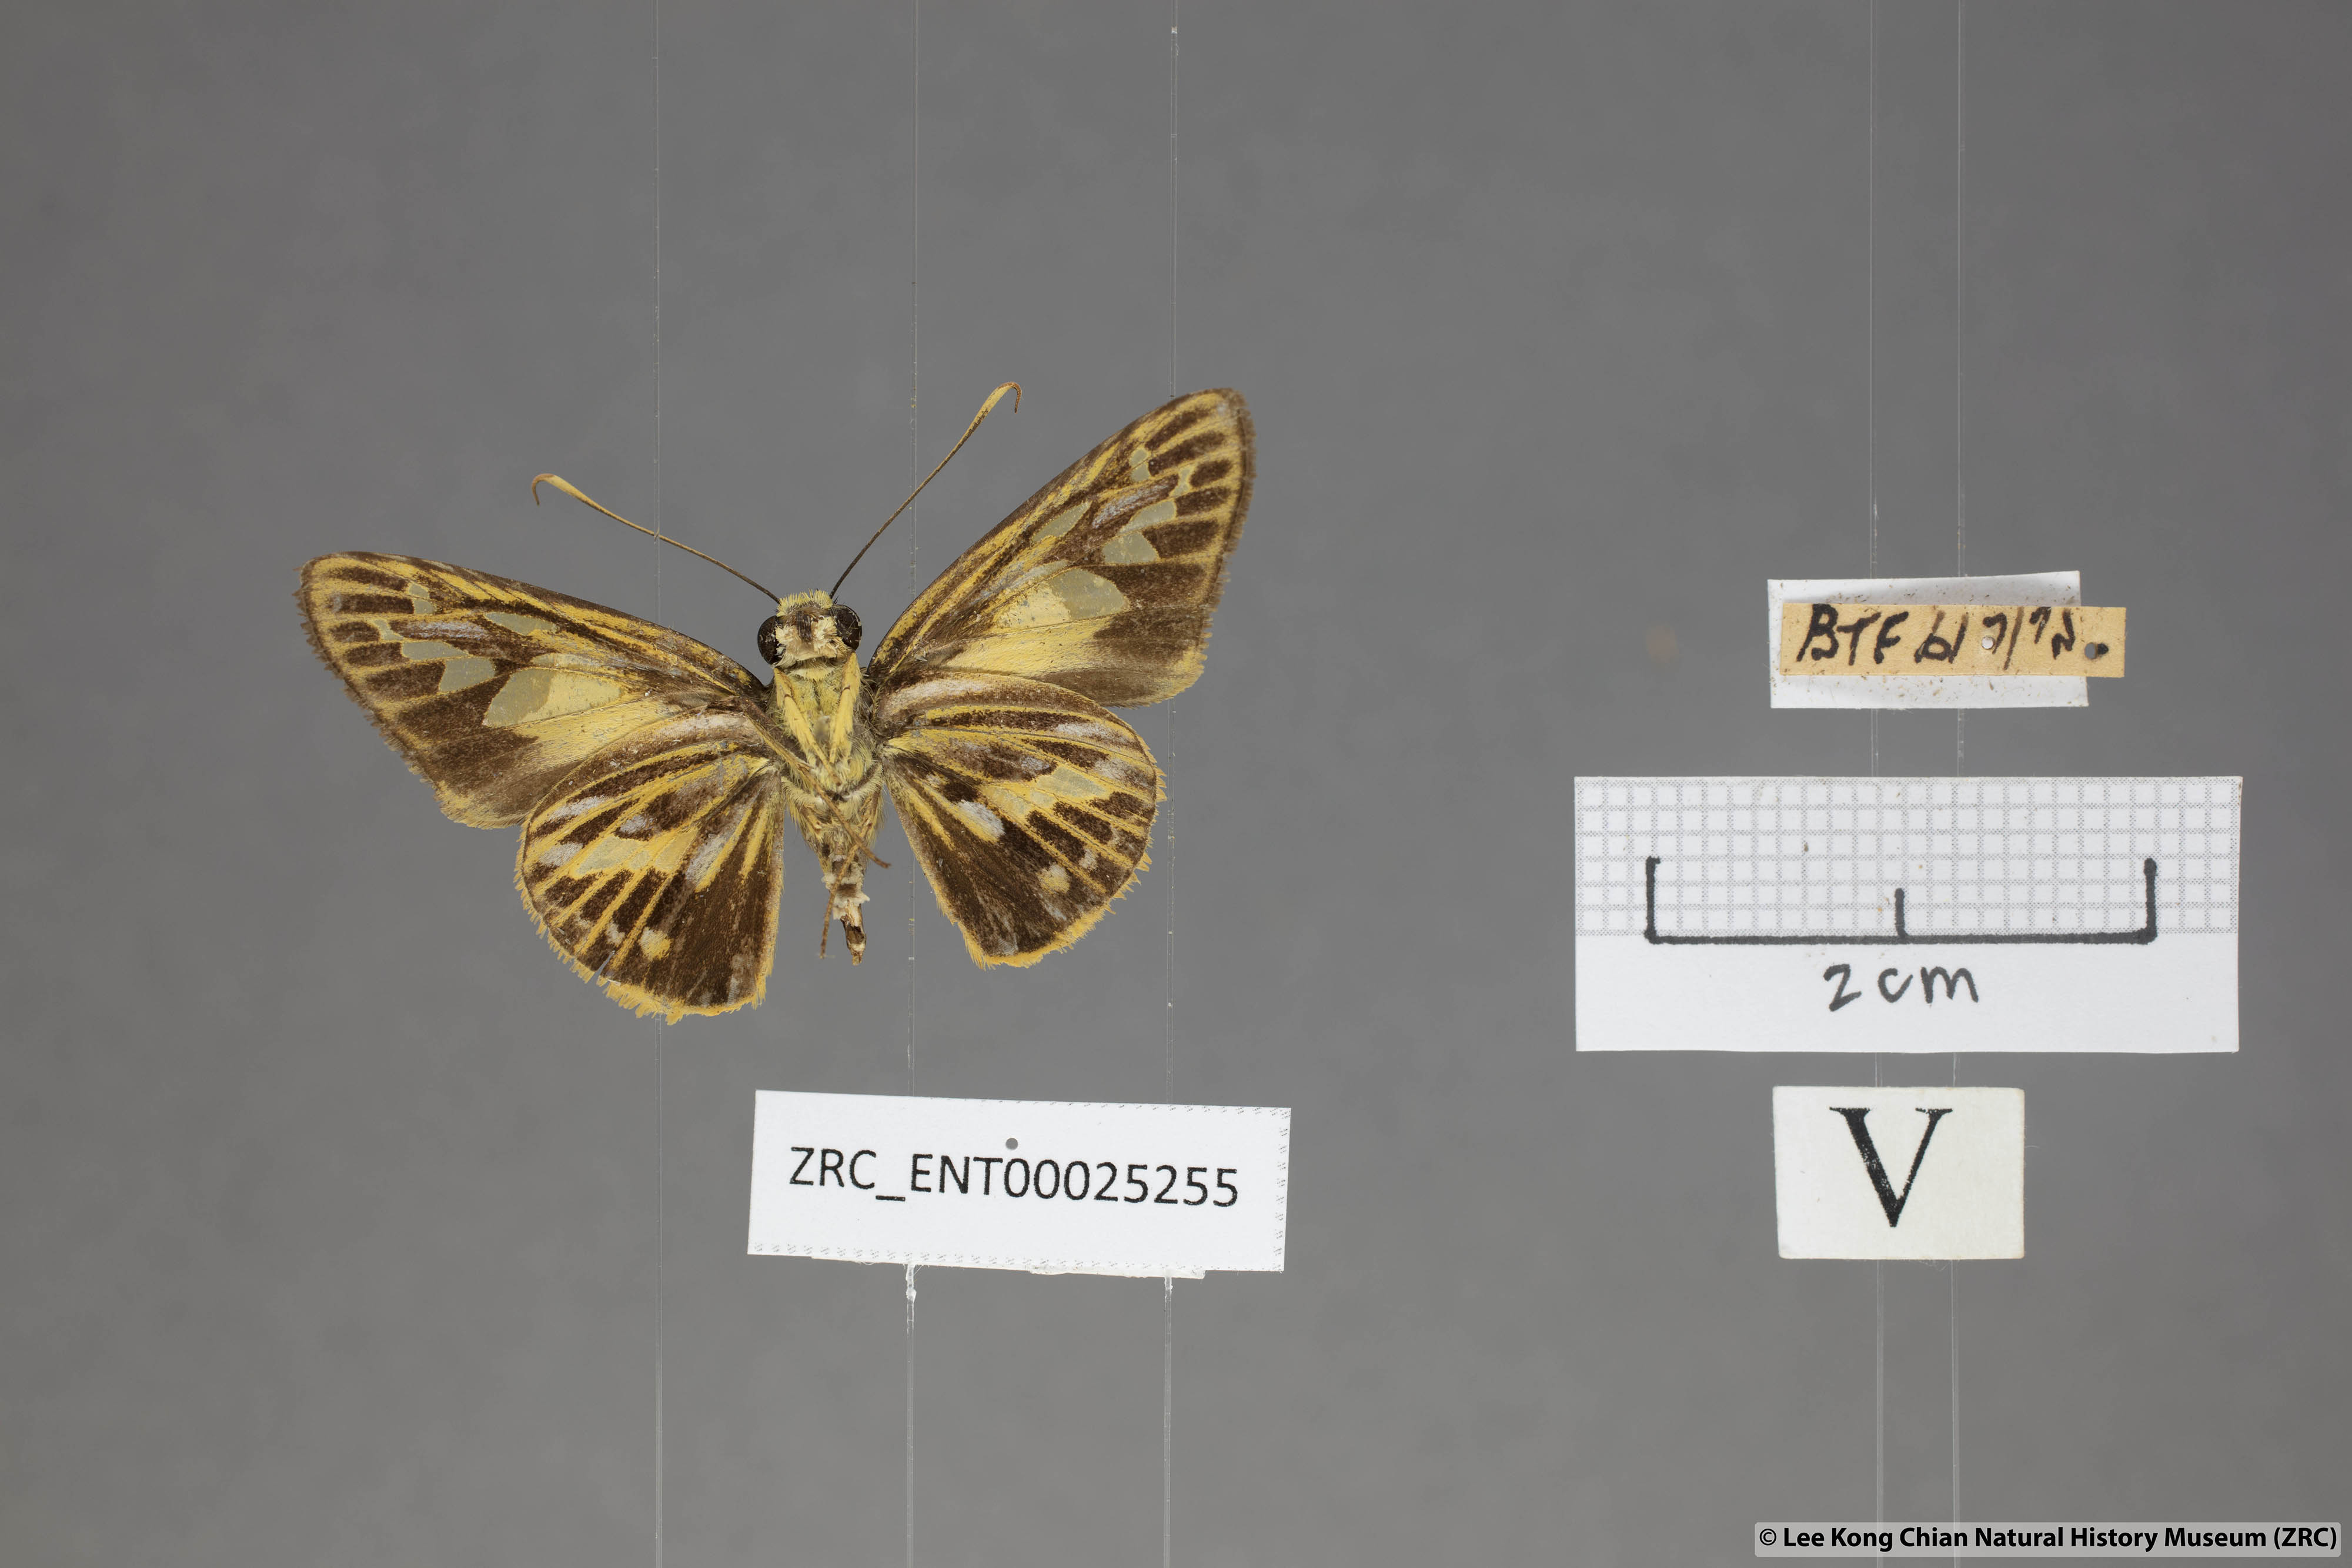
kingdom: Animalia
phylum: Arthropoda
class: Insecta
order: Lepidoptera
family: Hesperiidae
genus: Pyroneura
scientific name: Pyroneura latoia
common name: Yellow vein lancer
